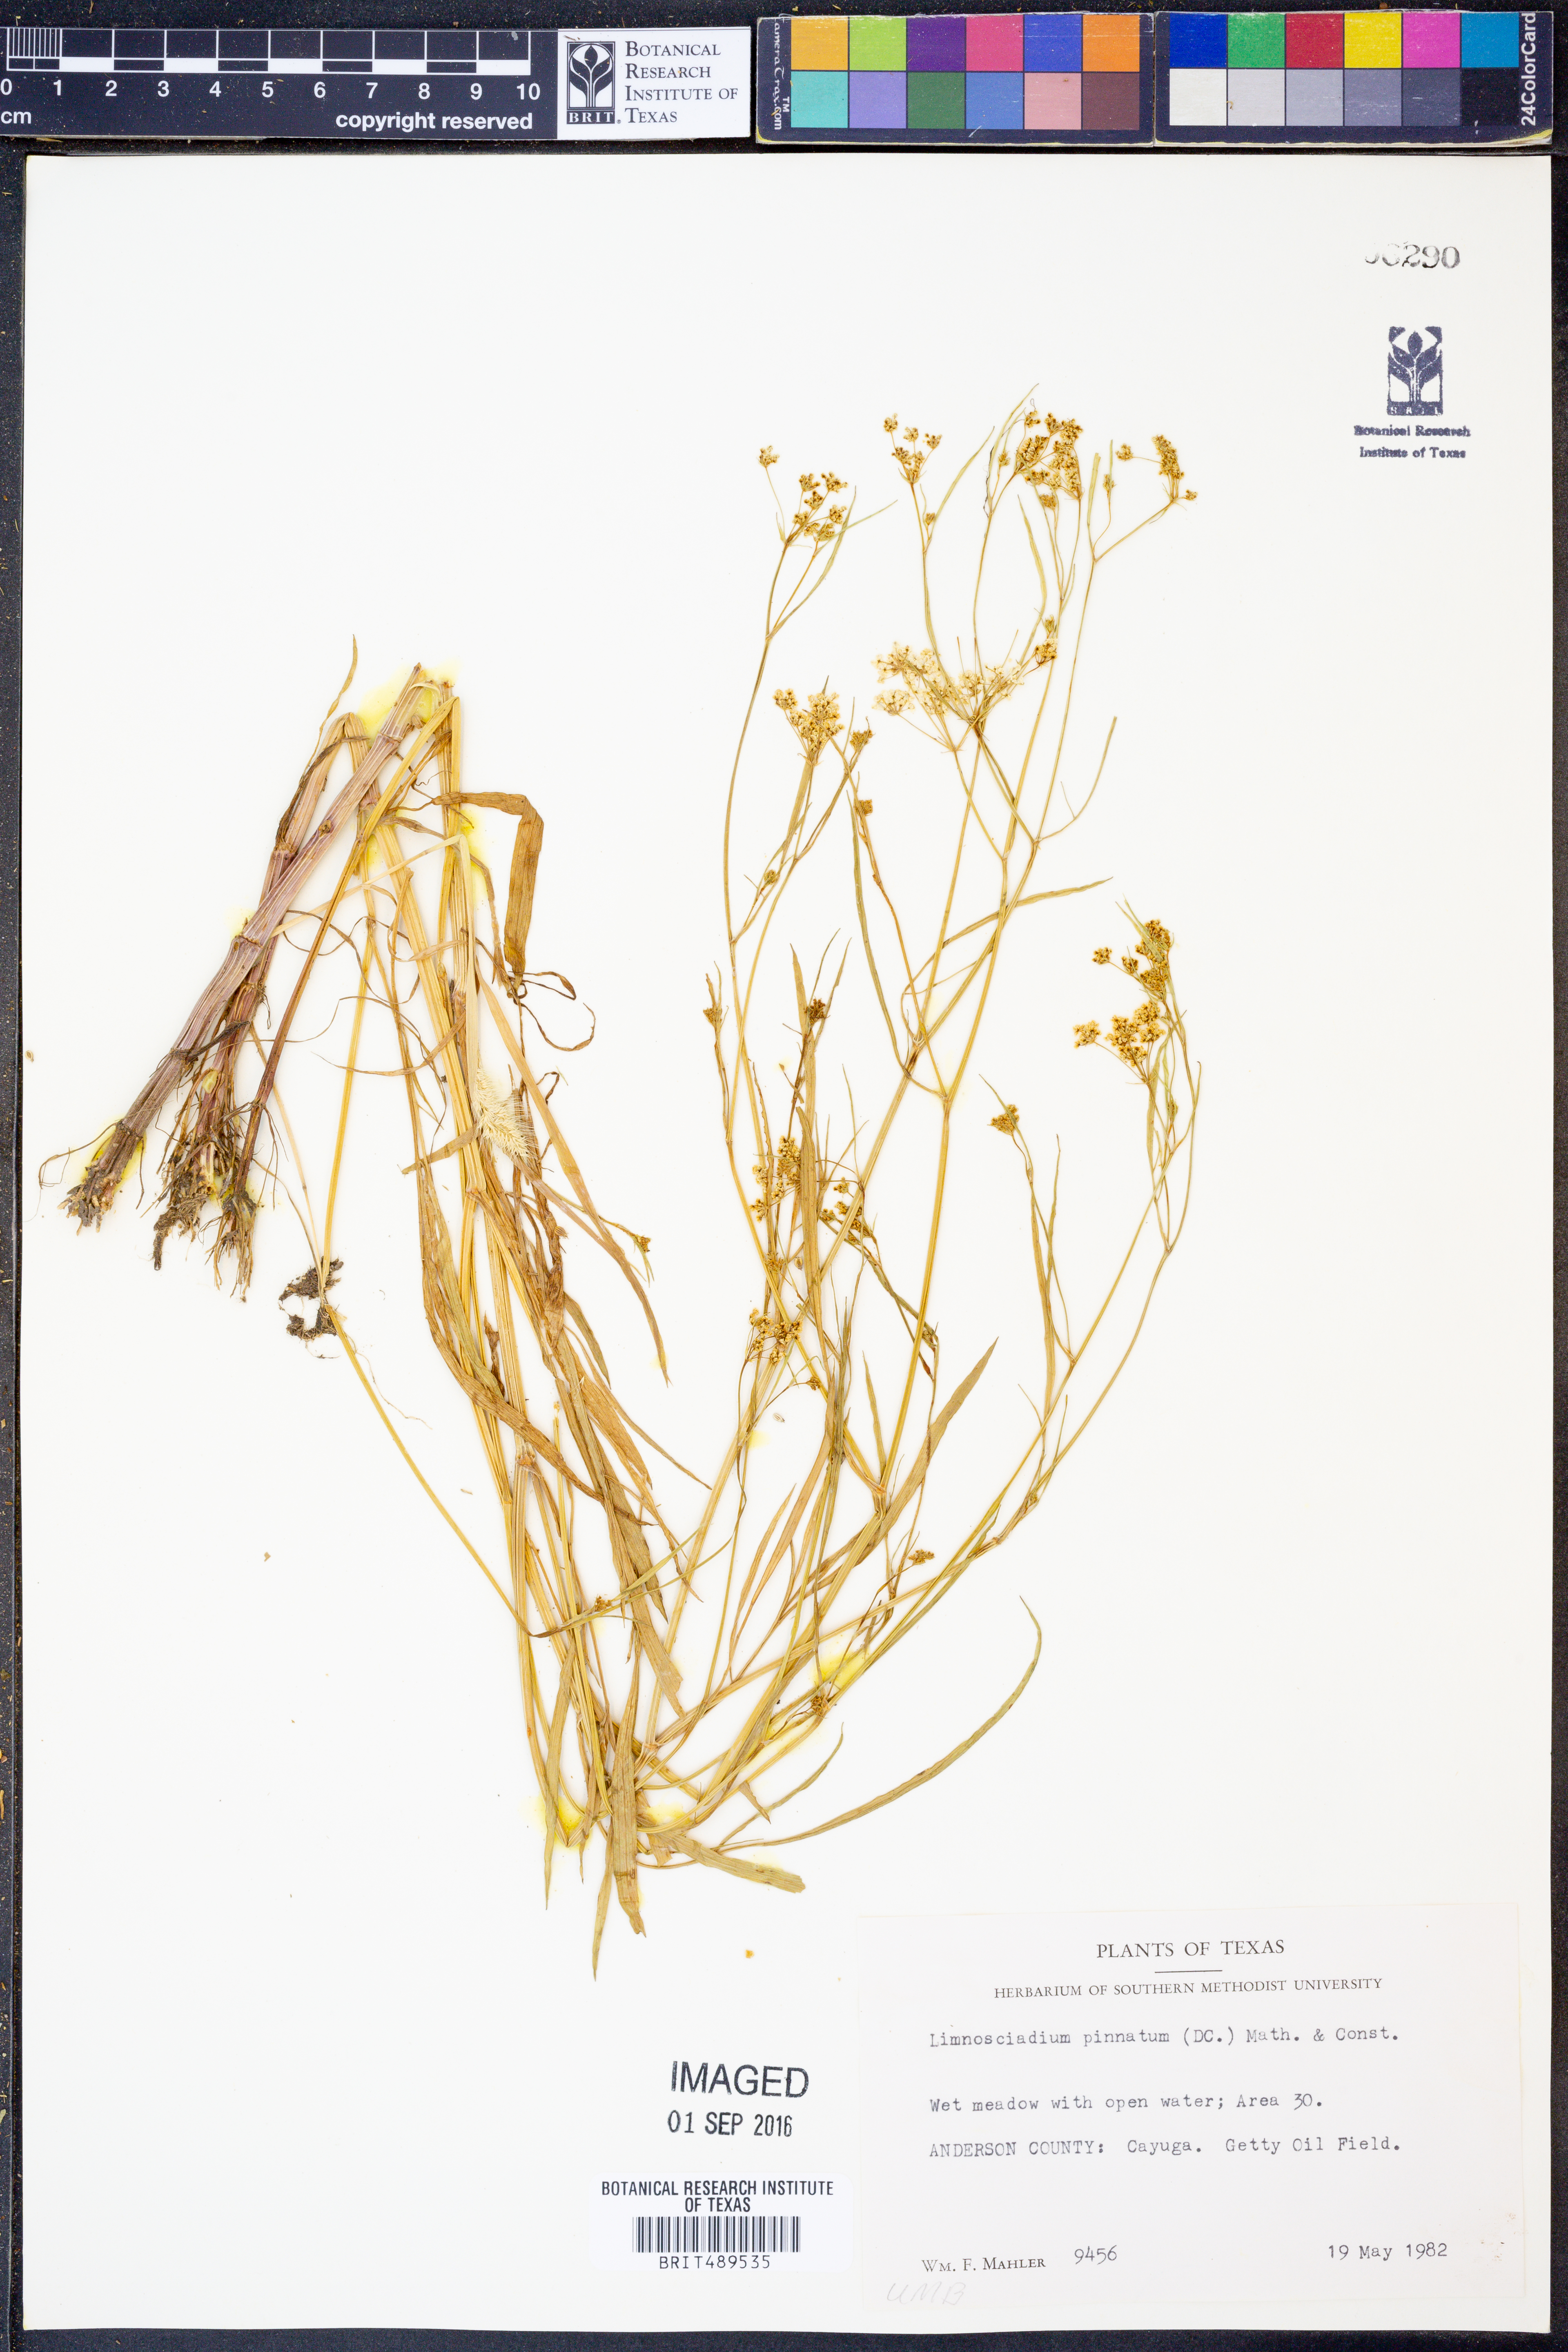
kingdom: Plantae
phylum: Tracheophyta
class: Magnoliopsida
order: Apiales
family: Apiaceae
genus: Limnosciadium
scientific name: Limnosciadium pinnatum
